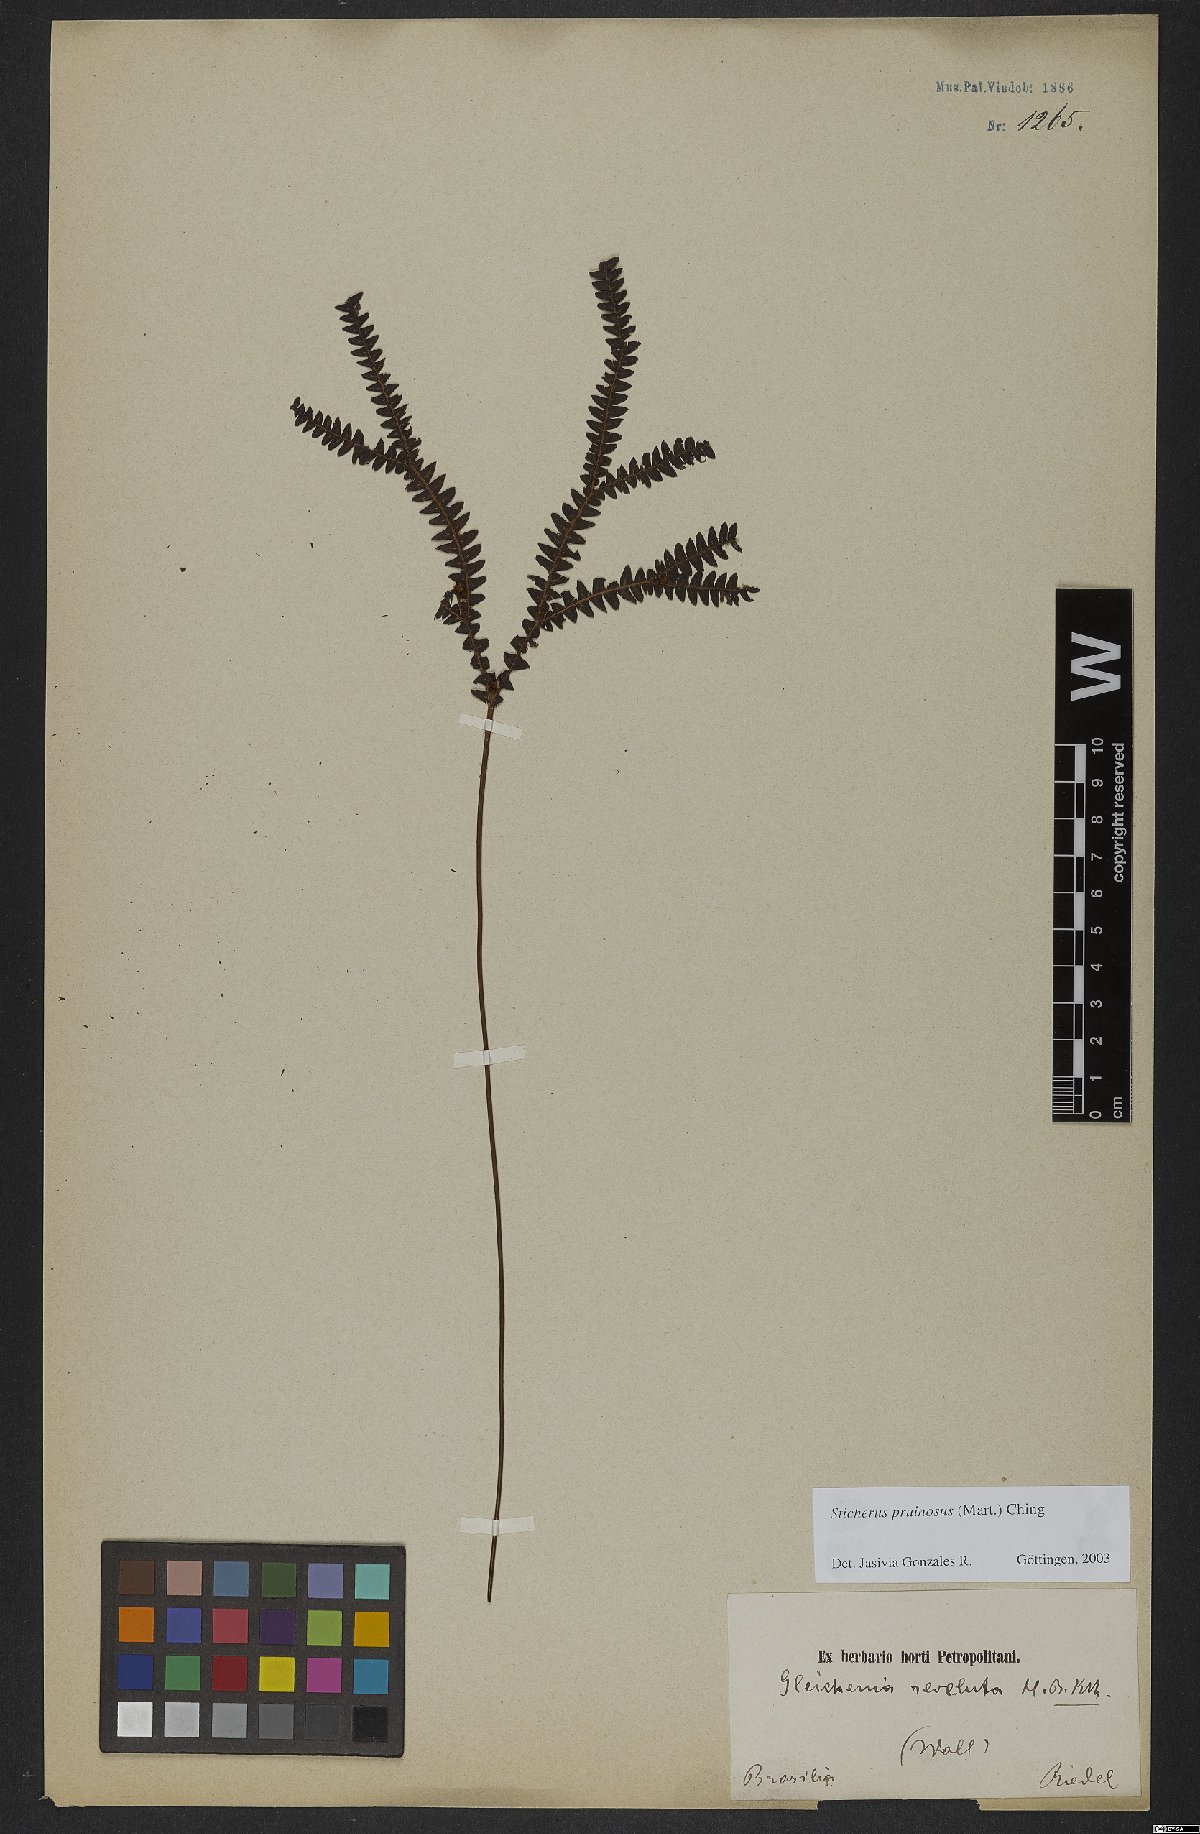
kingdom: Plantae
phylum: Tracheophyta
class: Polypodiopsida
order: Gleicheniales
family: Gleicheniaceae
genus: Sticherus
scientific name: Sticherus pruinosus
